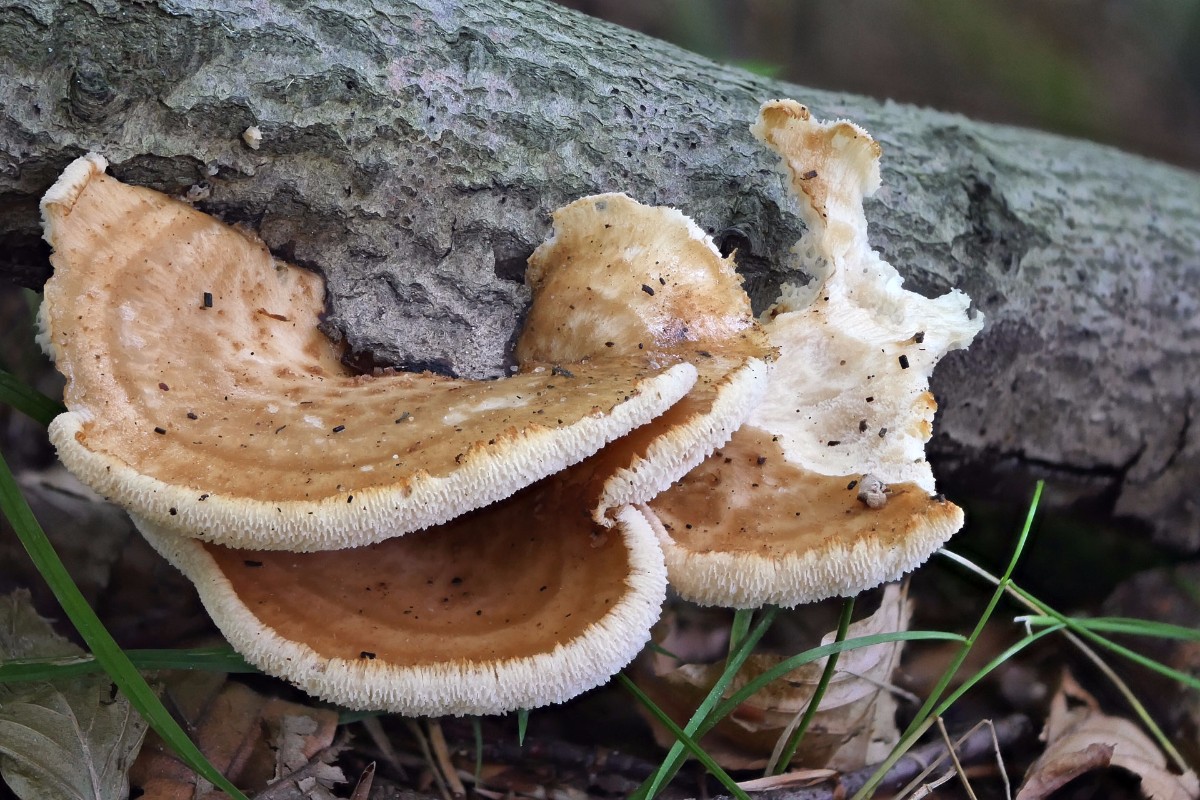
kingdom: Fungi
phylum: Basidiomycota
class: Agaricomycetes
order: Polyporales
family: Polyporaceae
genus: Polyporus
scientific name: Polyporus tuberaster
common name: knoldet stilkporesvamp
